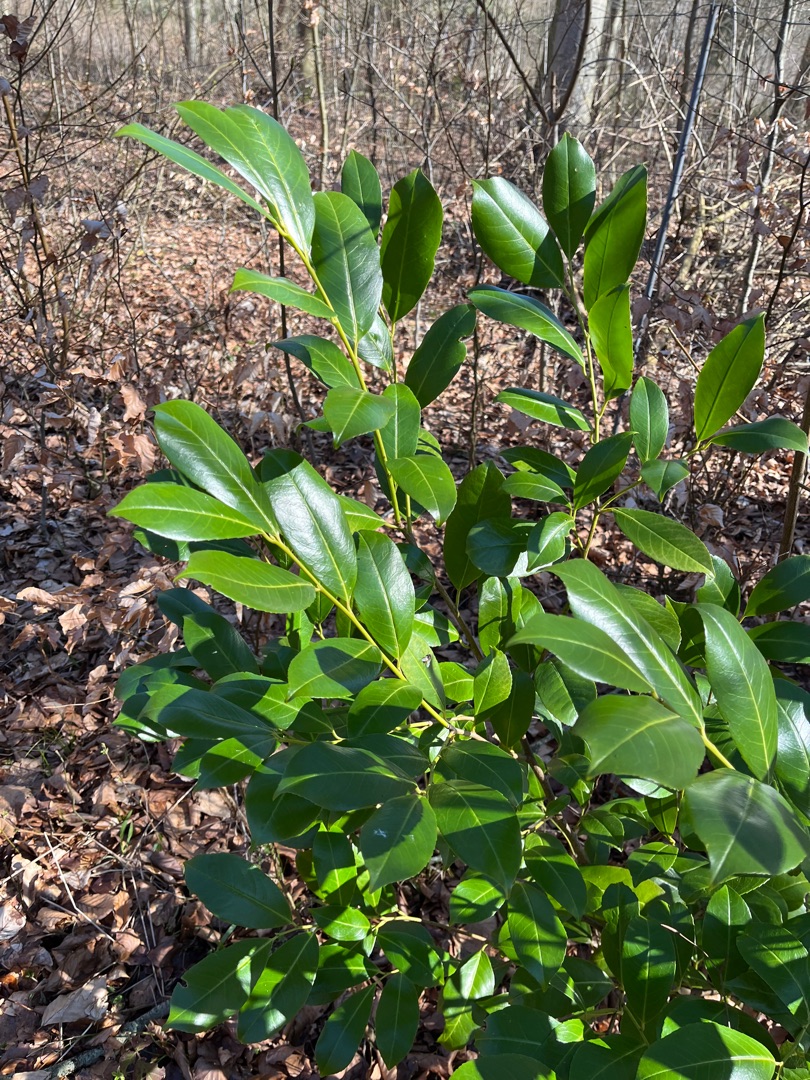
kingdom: Plantae
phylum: Tracheophyta
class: Magnoliopsida
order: Rosales
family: Rosaceae
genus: Prunus
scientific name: Prunus laurocerasus
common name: Laurbærkirsebær
